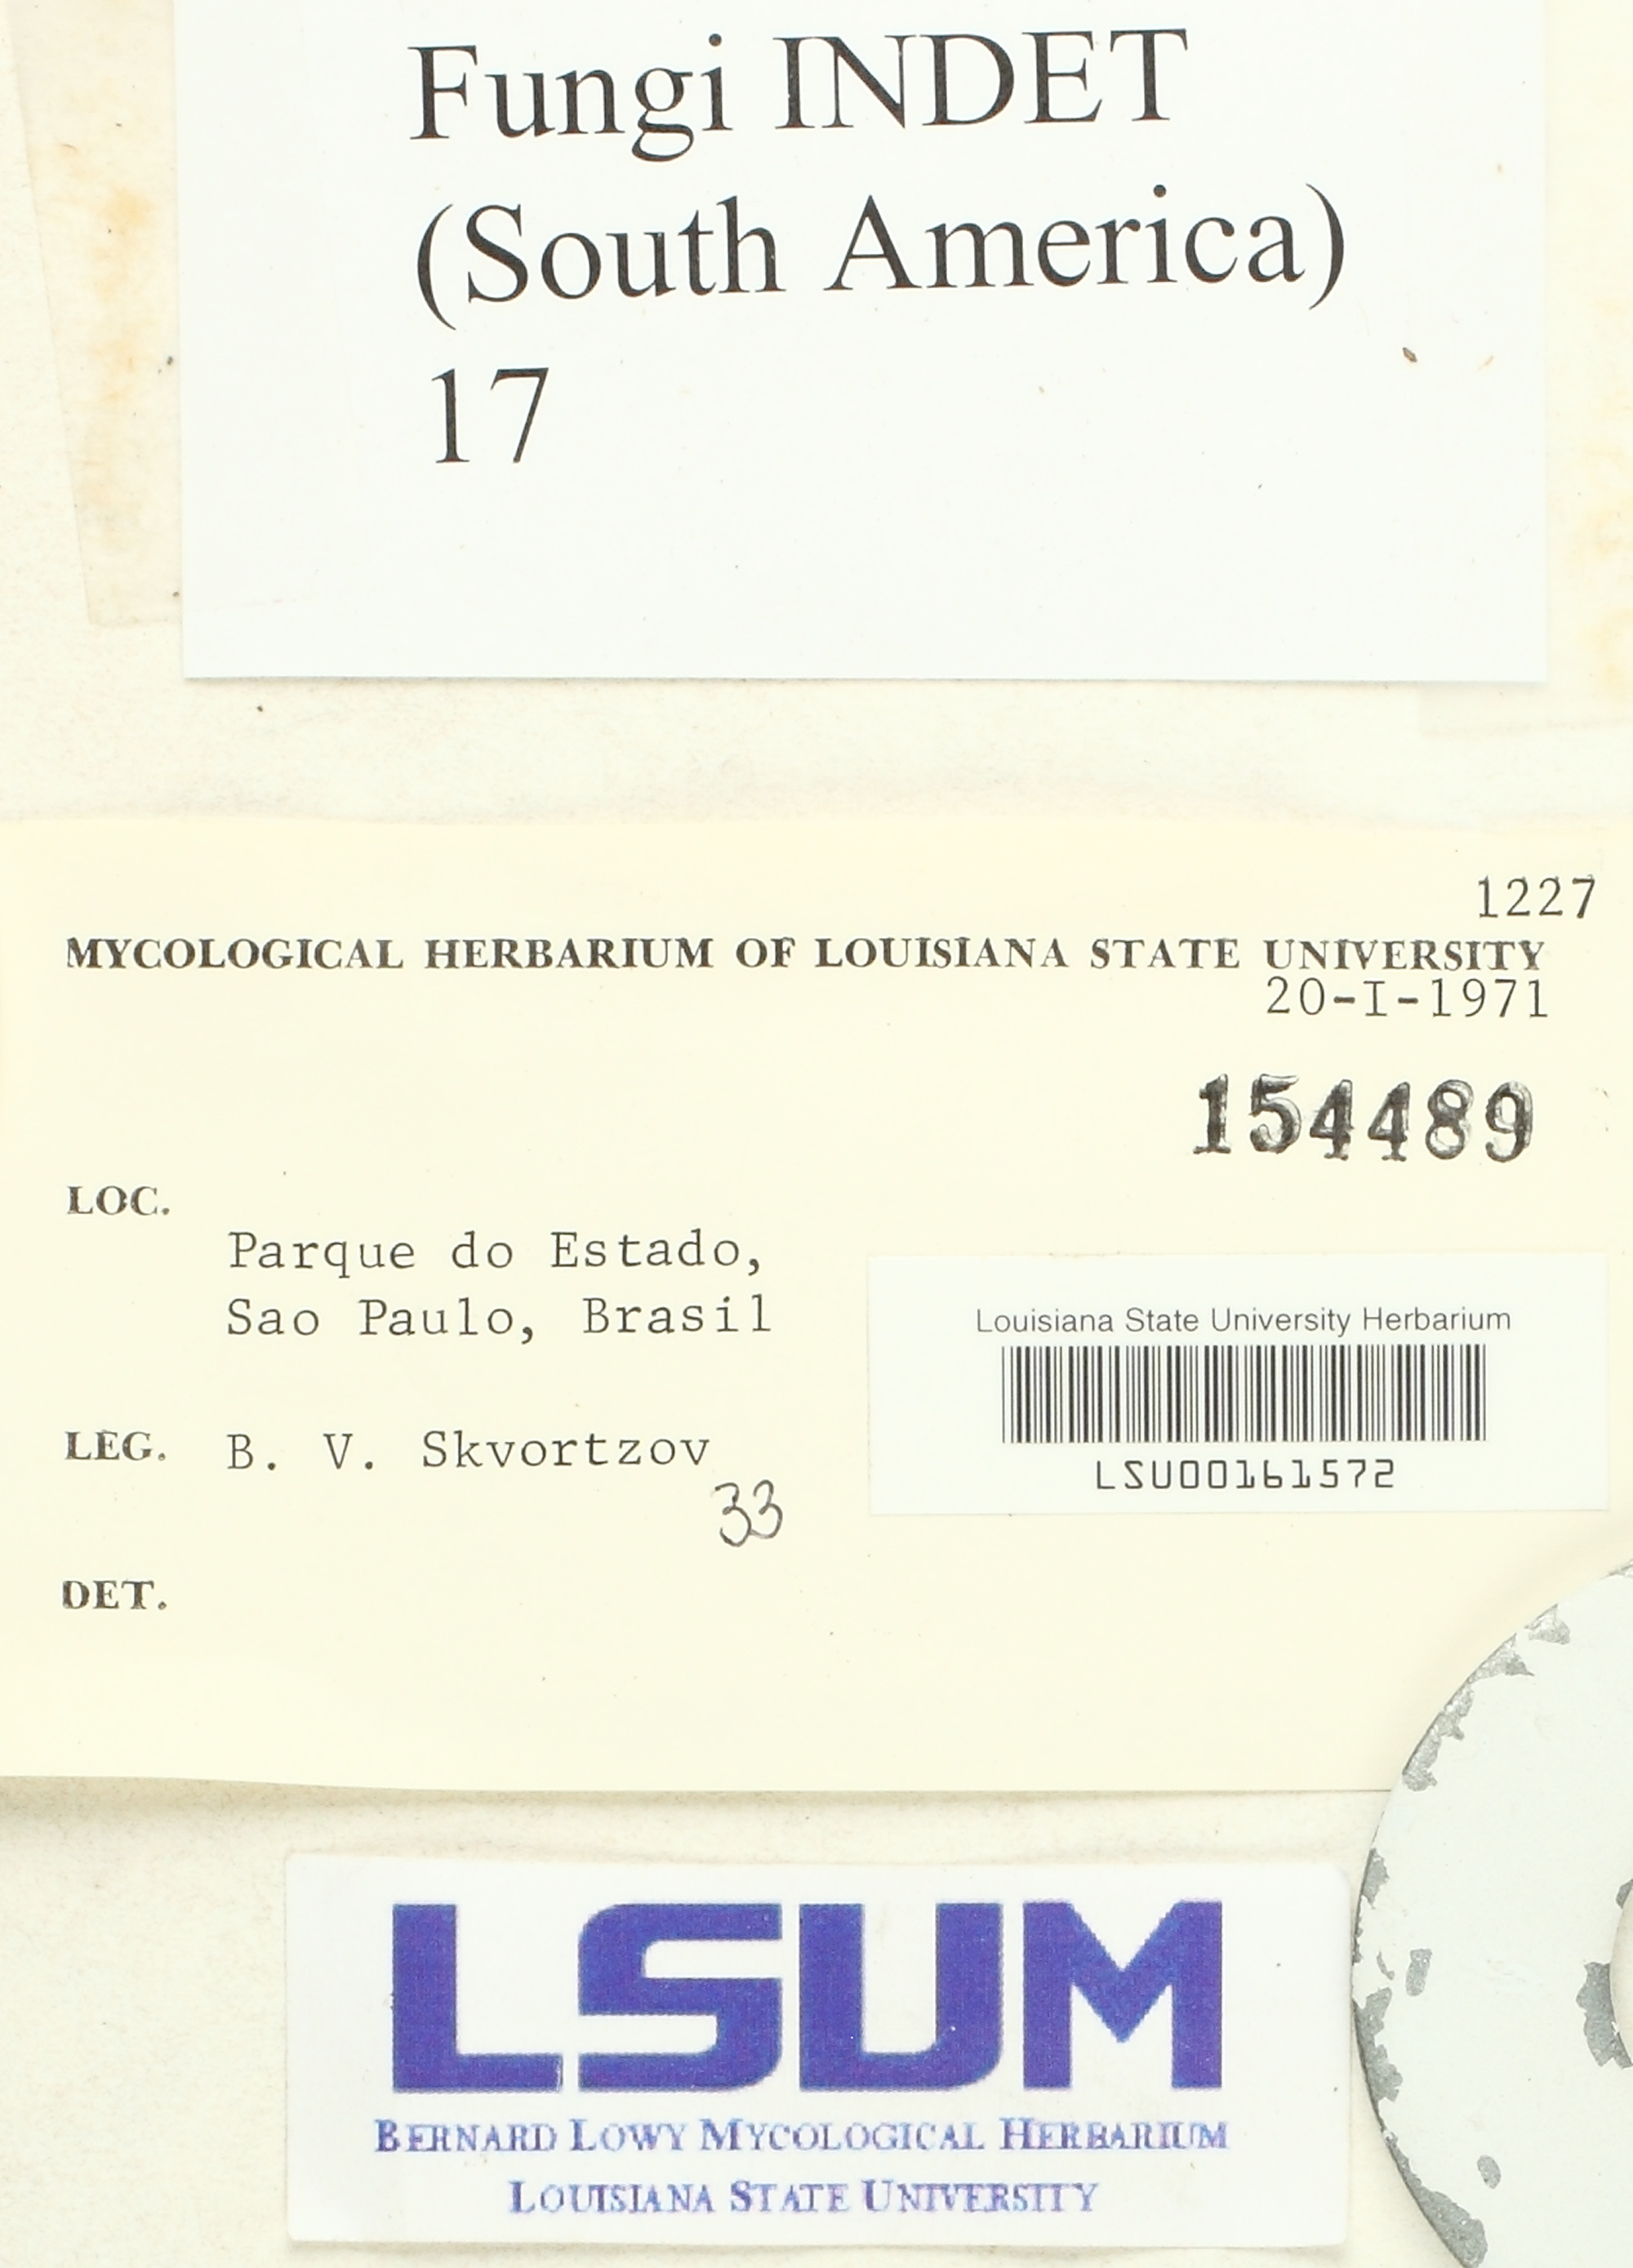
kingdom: Fungi
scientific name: Fungi
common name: Fungi
